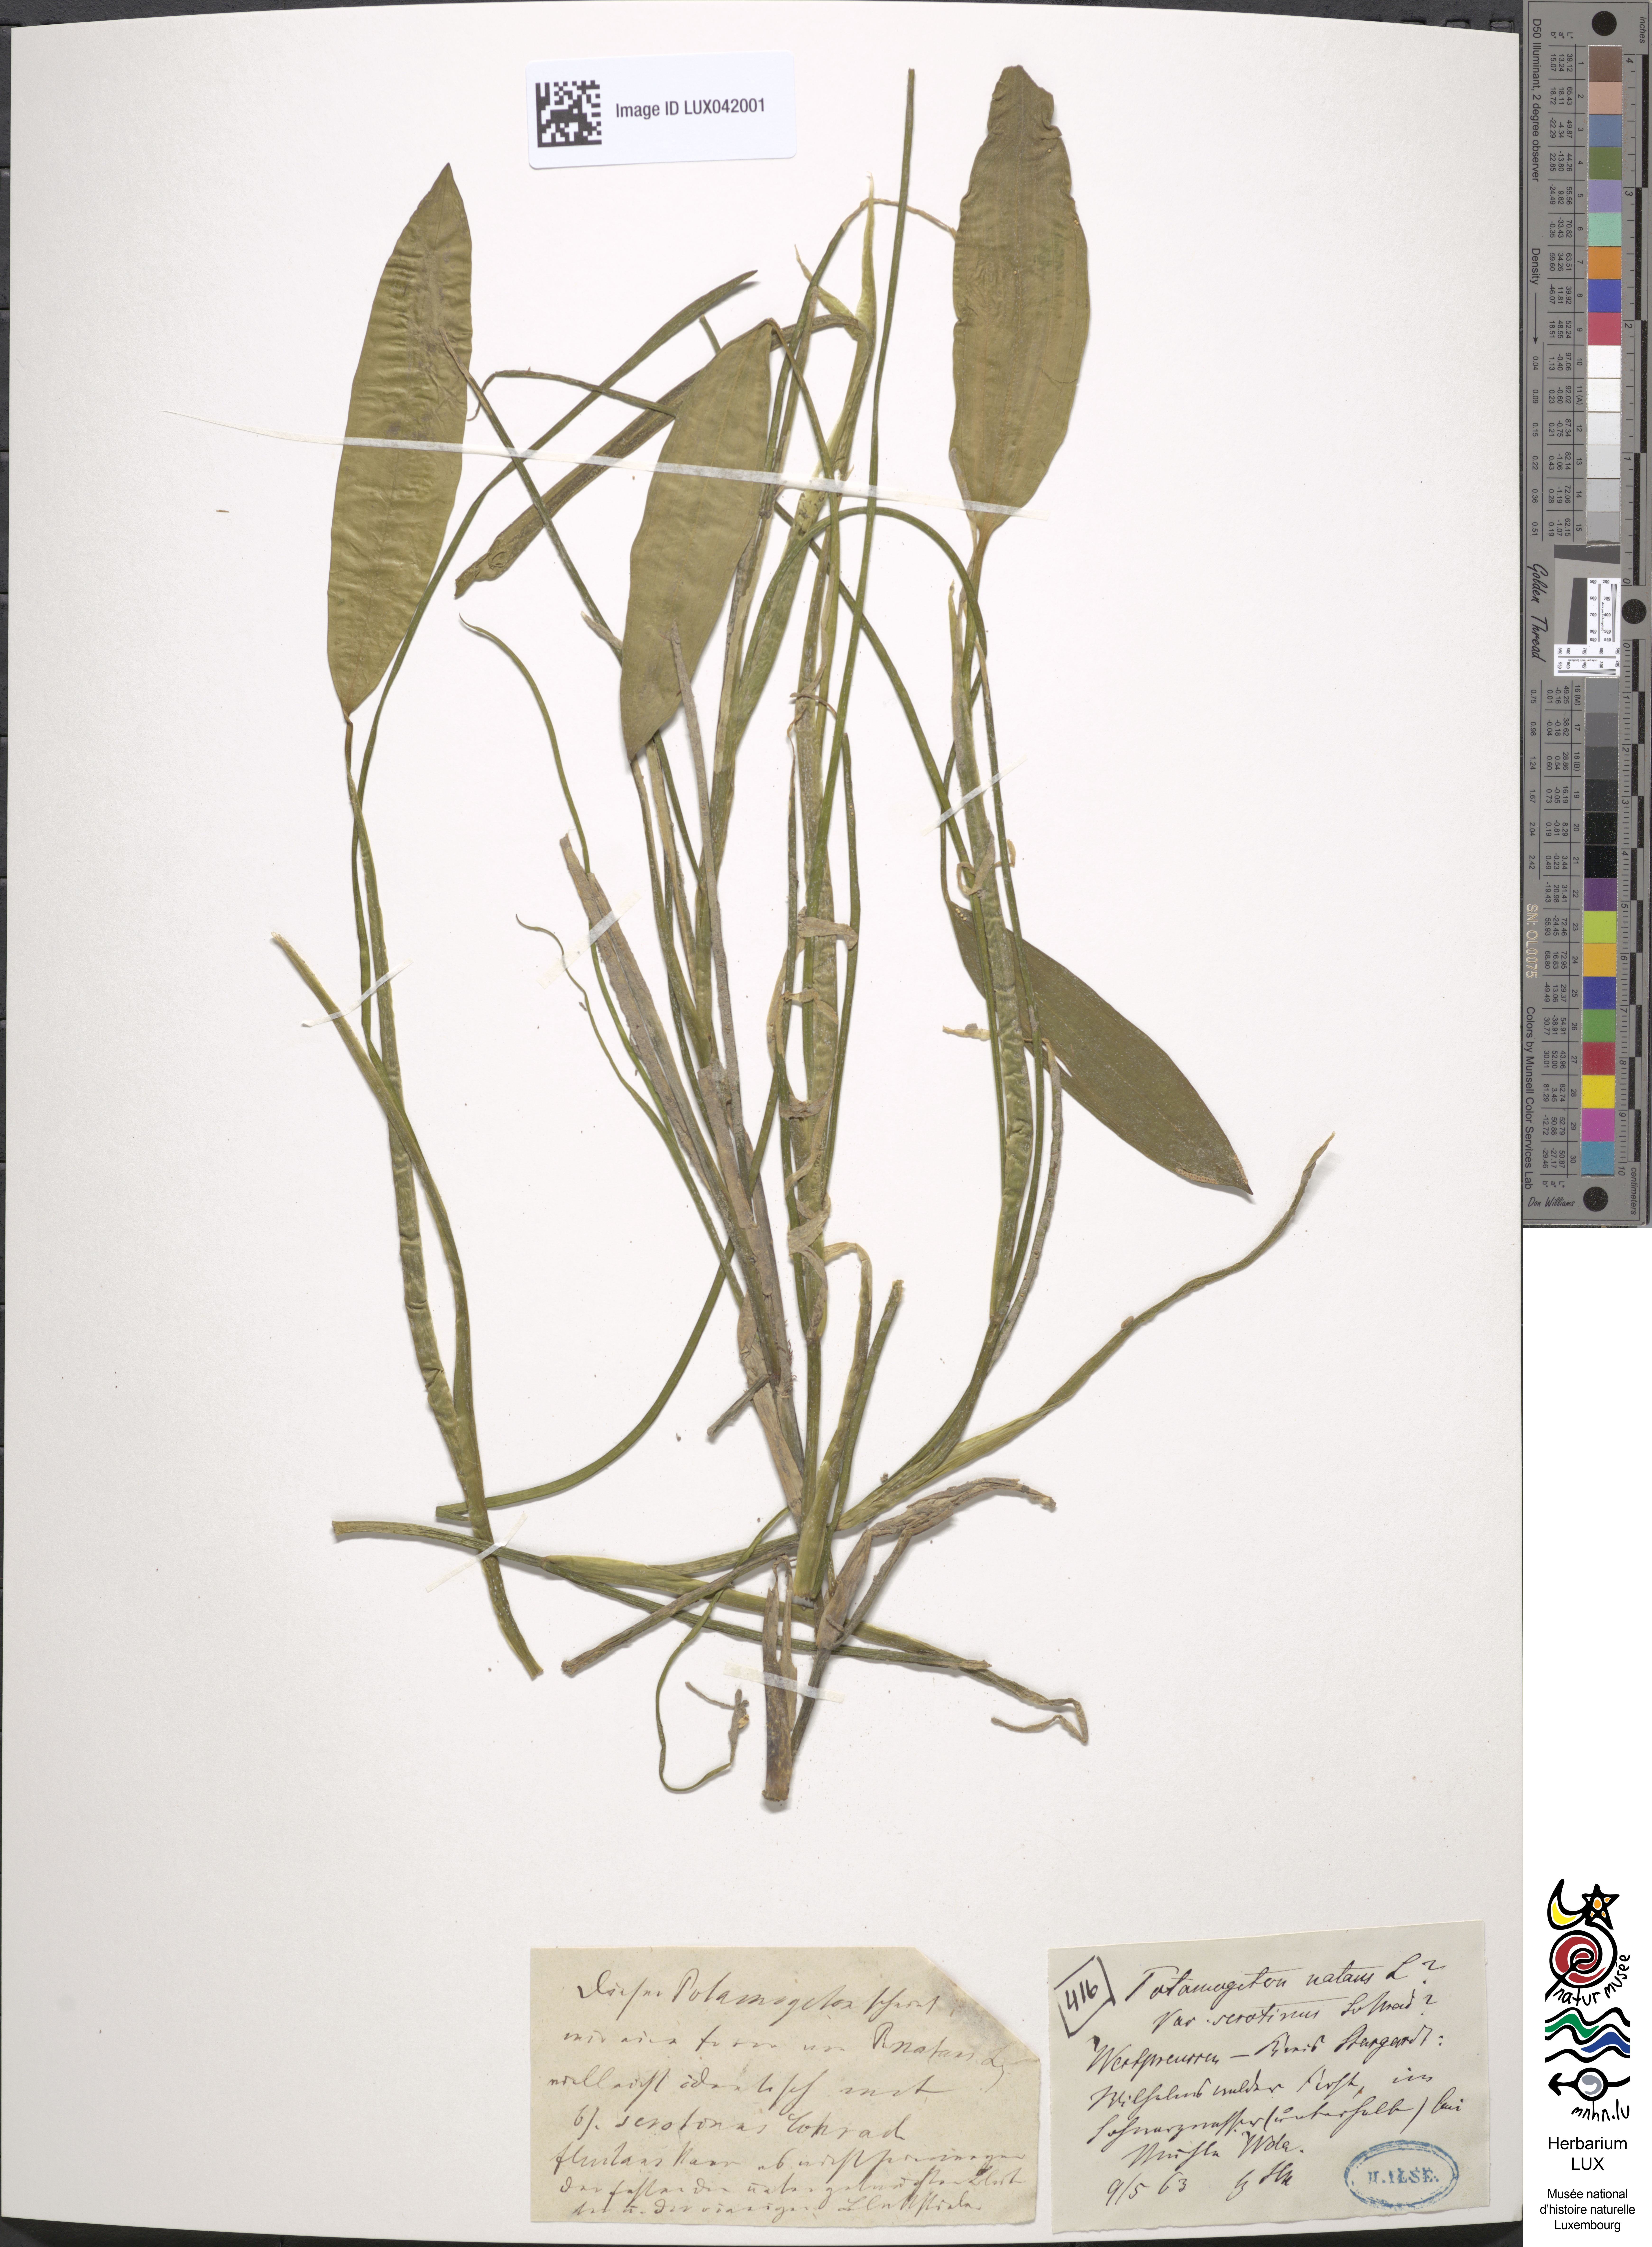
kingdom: Plantae
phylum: Tracheophyta
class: Liliopsida
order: Alismatales
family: Potamogetonaceae
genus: Potamogeton
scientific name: Potamogeton natans
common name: Broad-leaved pondweed
